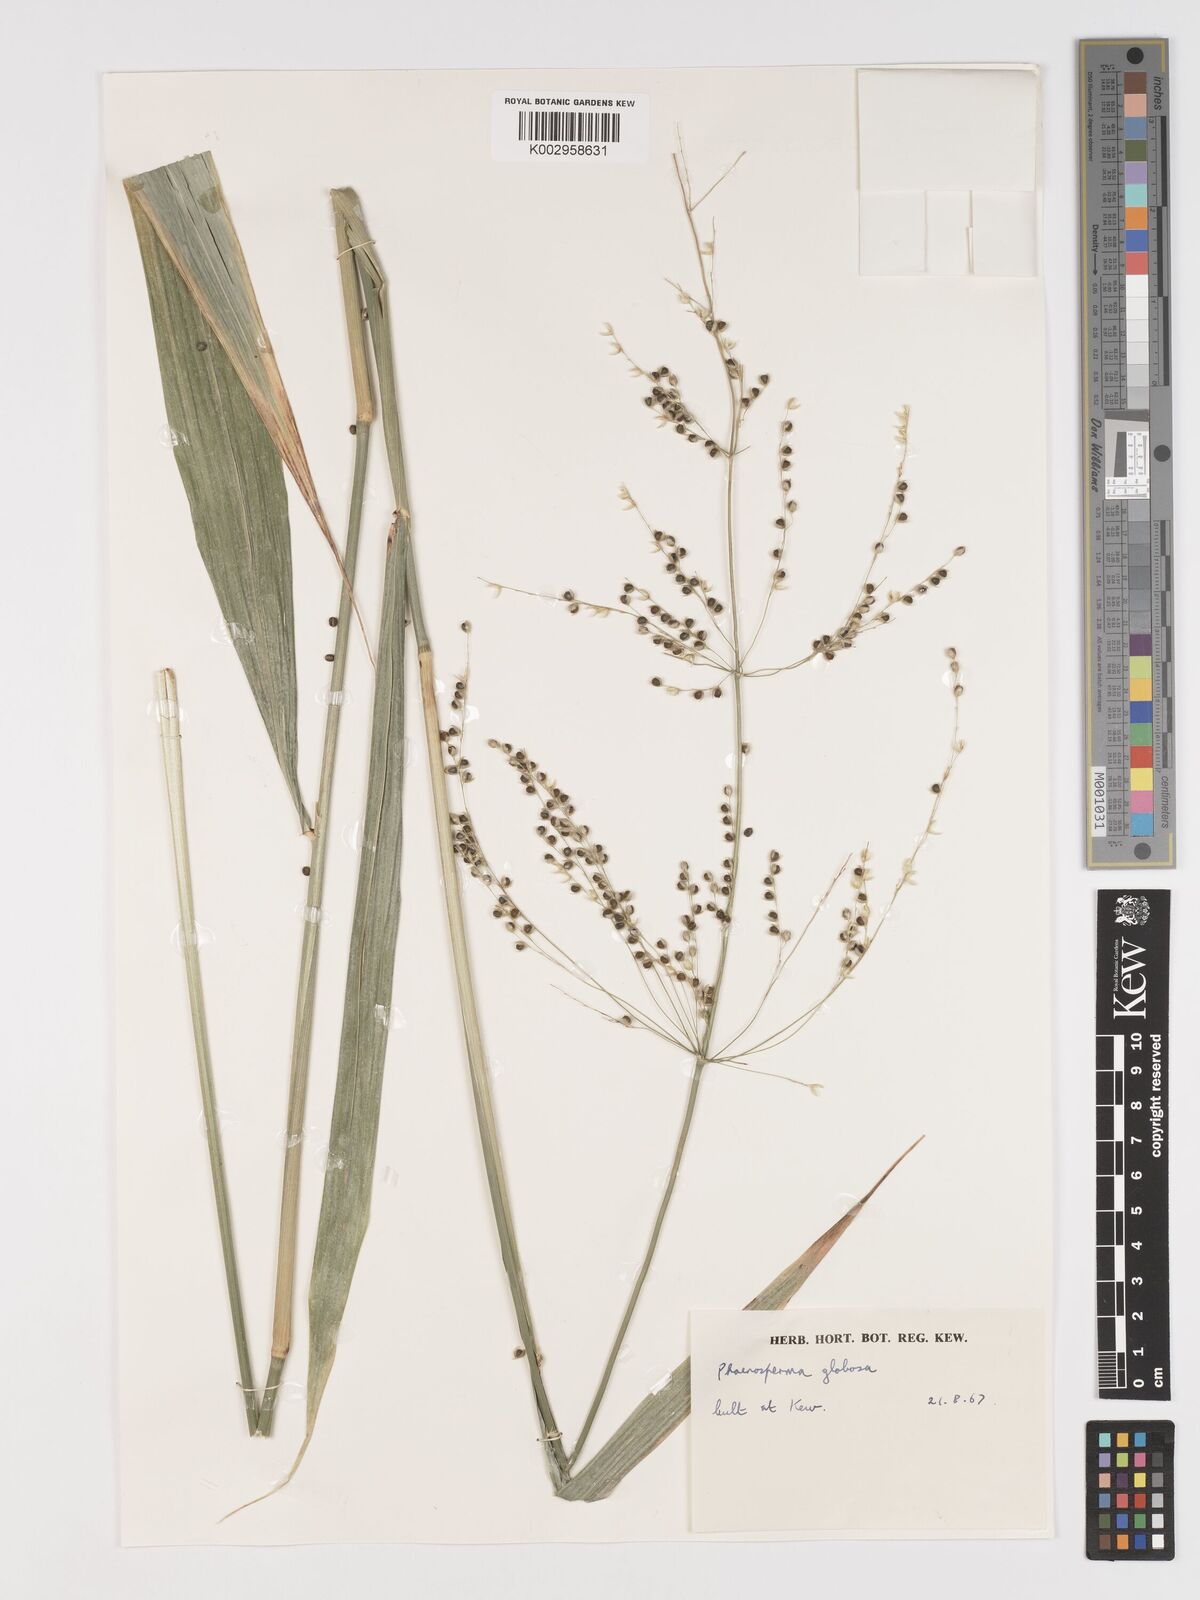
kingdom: Plantae
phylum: Tracheophyta
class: Liliopsida
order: Poales
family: Poaceae
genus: Phaenosperma
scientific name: Phaenosperma globosum
